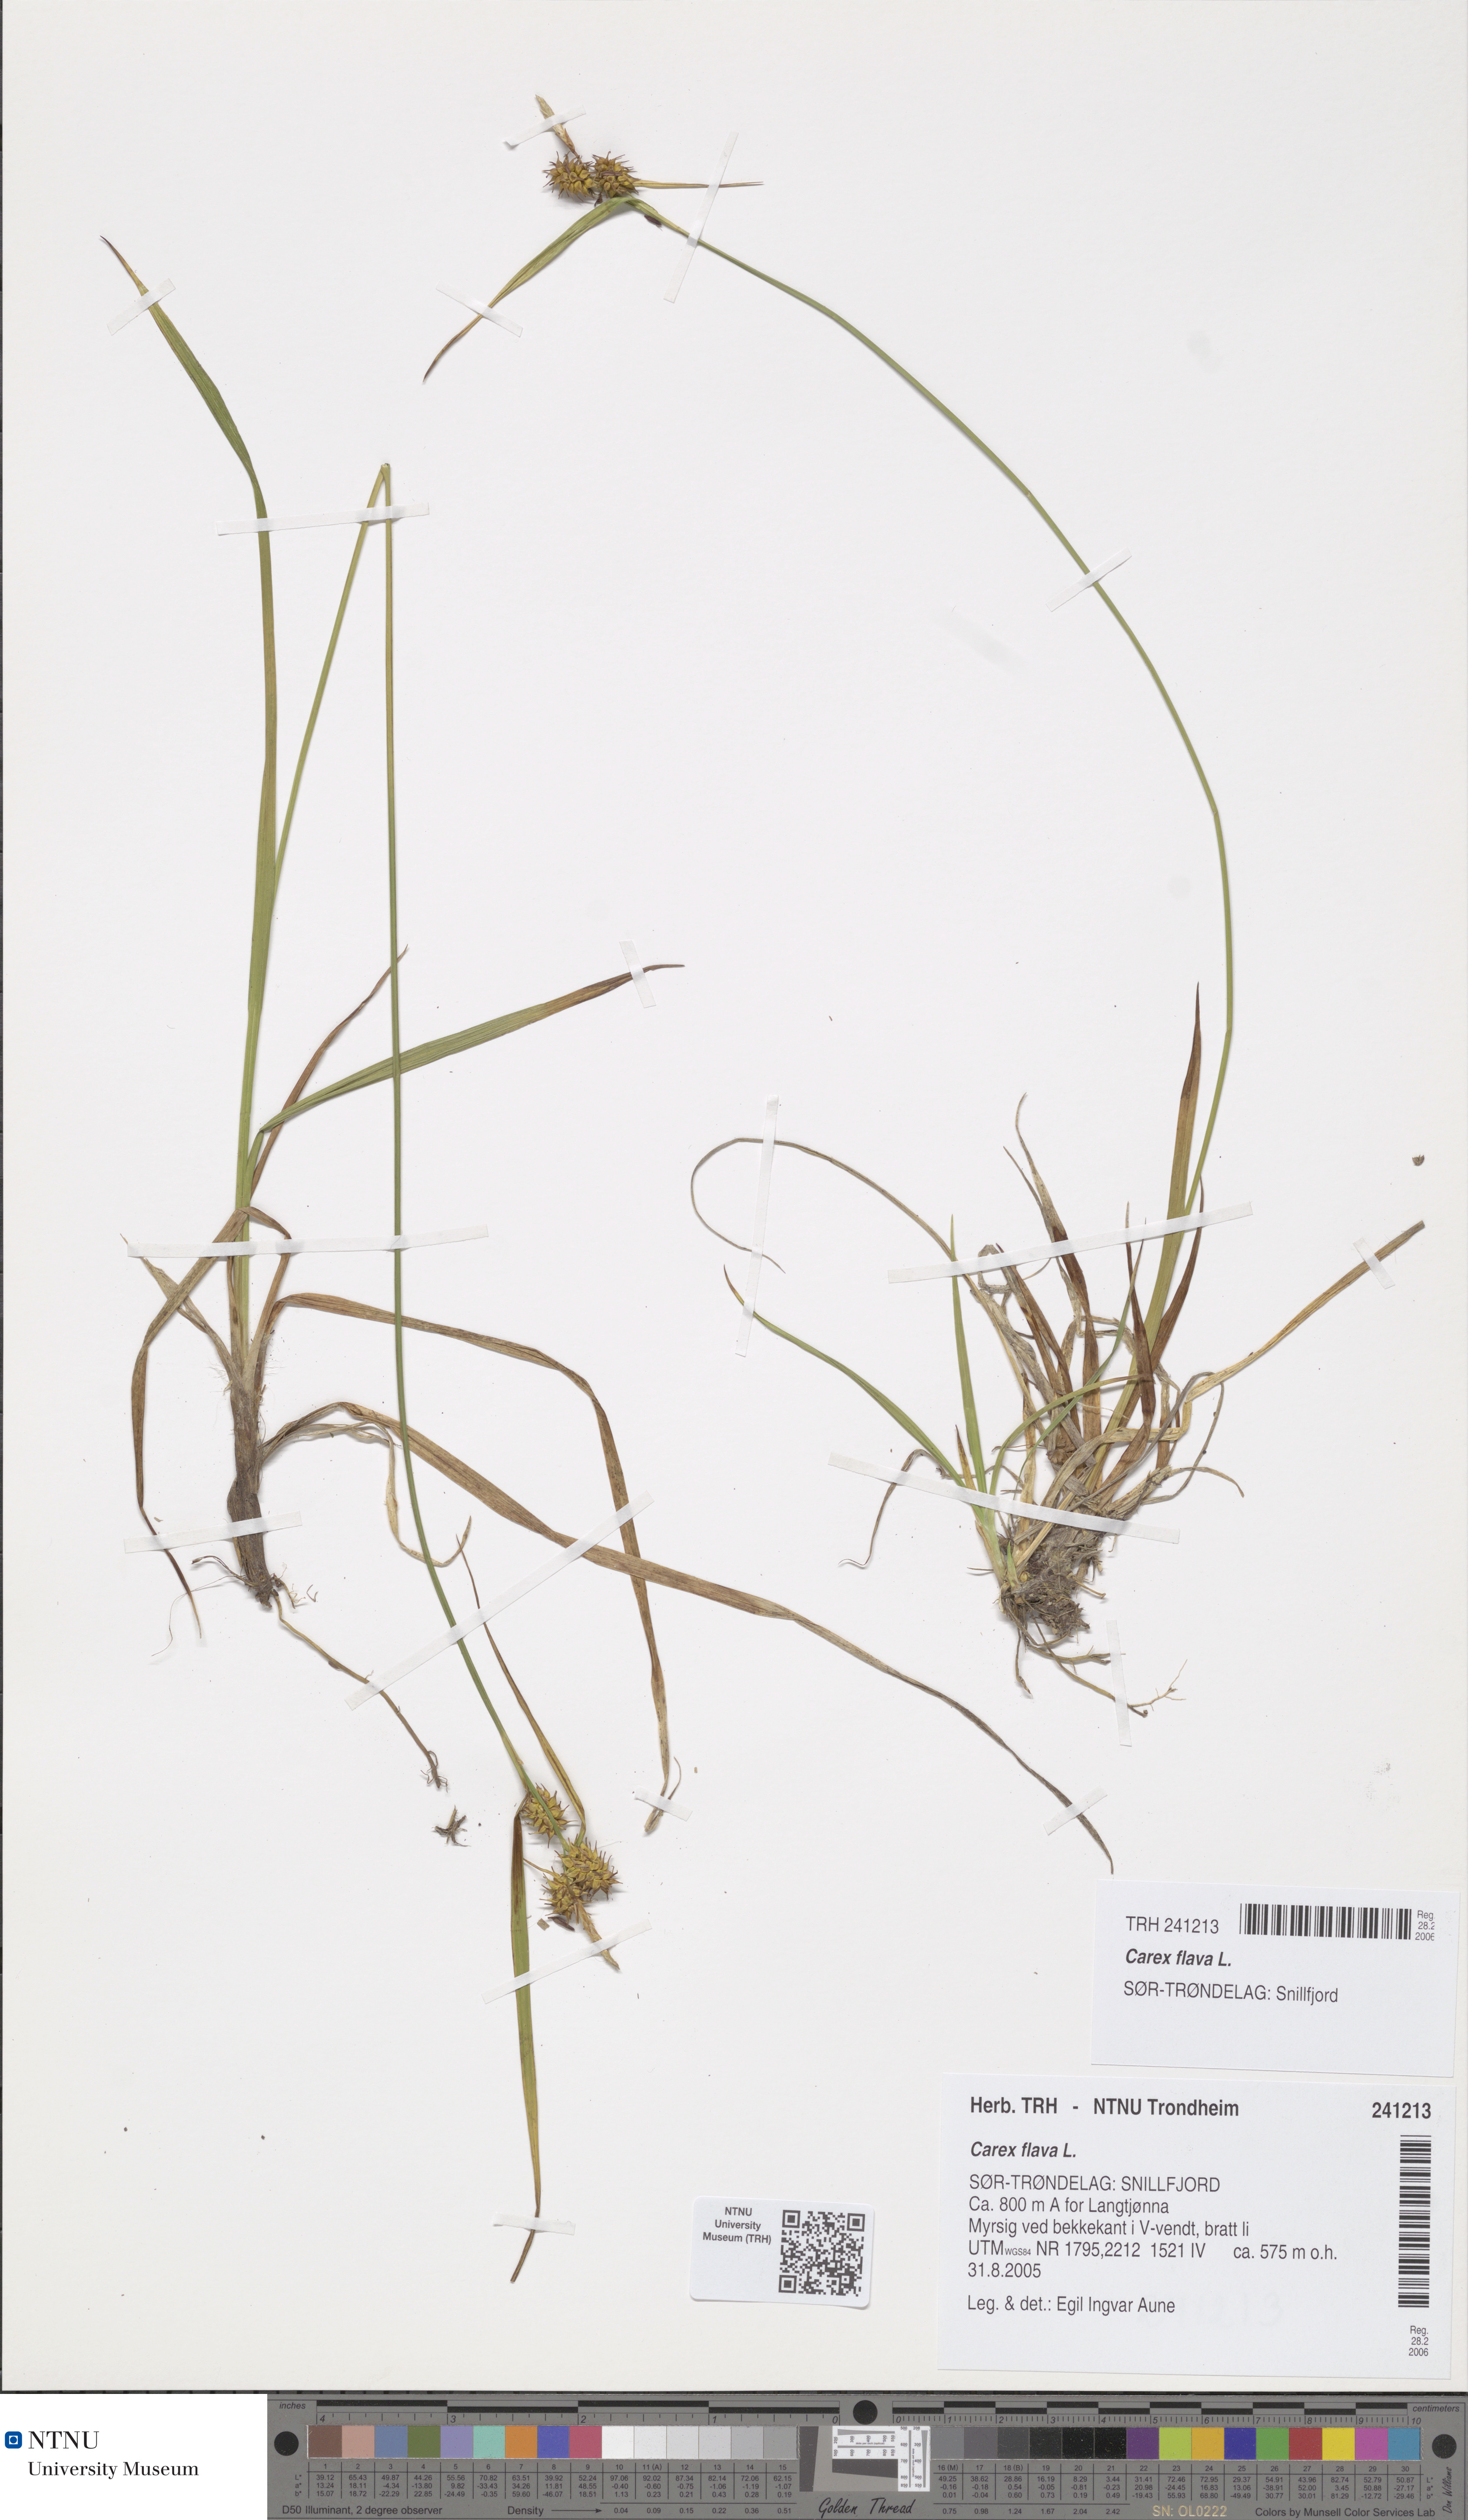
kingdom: Plantae
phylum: Tracheophyta
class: Liliopsida
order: Poales
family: Cyperaceae
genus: Carex
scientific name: Carex flava
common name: Large yellow-sedge
